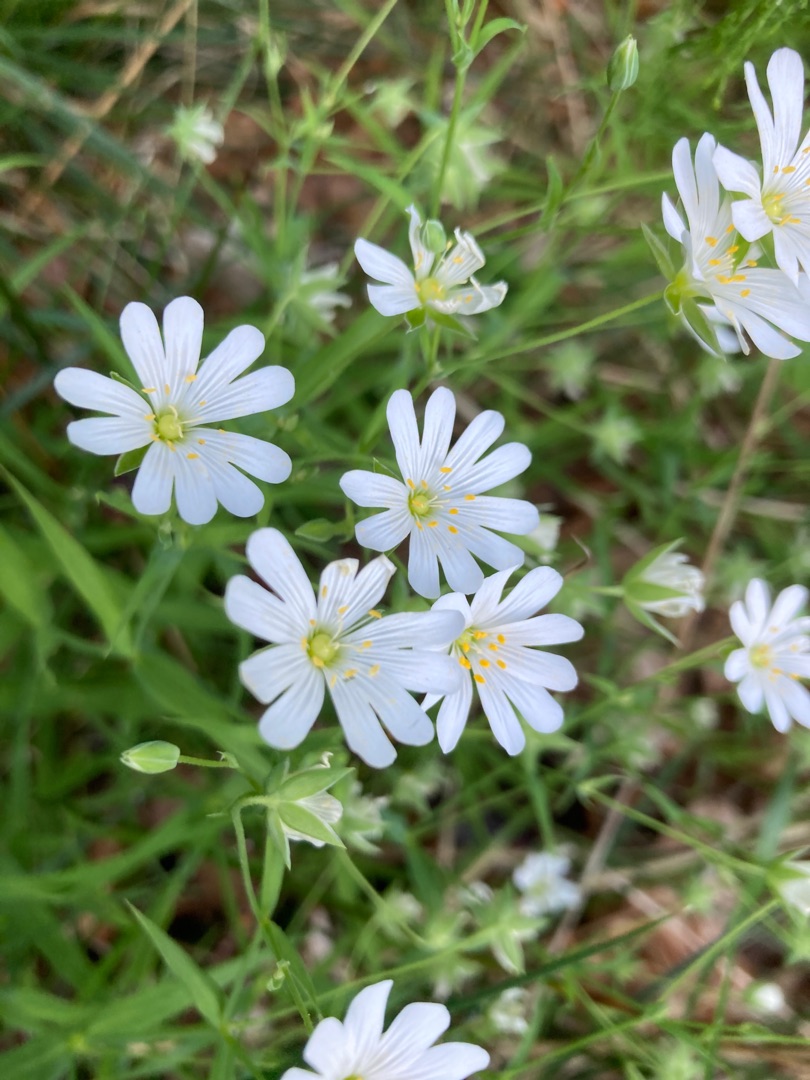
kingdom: Plantae
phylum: Tracheophyta
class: Magnoliopsida
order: Caryophyllales
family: Caryophyllaceae
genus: Rabelera
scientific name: Rabelera holostea
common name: Stor fladstjerne
